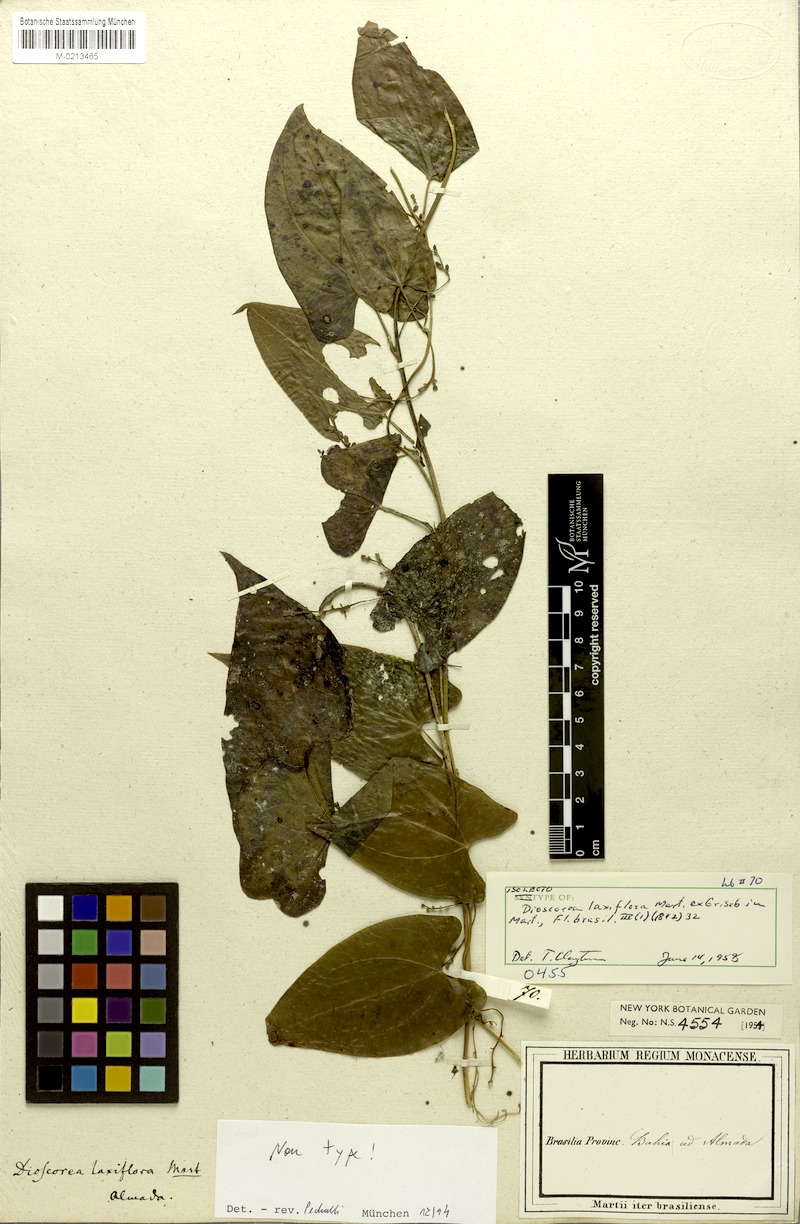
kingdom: Plantae
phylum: Tracheophyta
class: Liliopsida
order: Dioscoreales
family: Dioscoreaceae
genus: Dioscorea
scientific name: Dioscorea laxiflora
